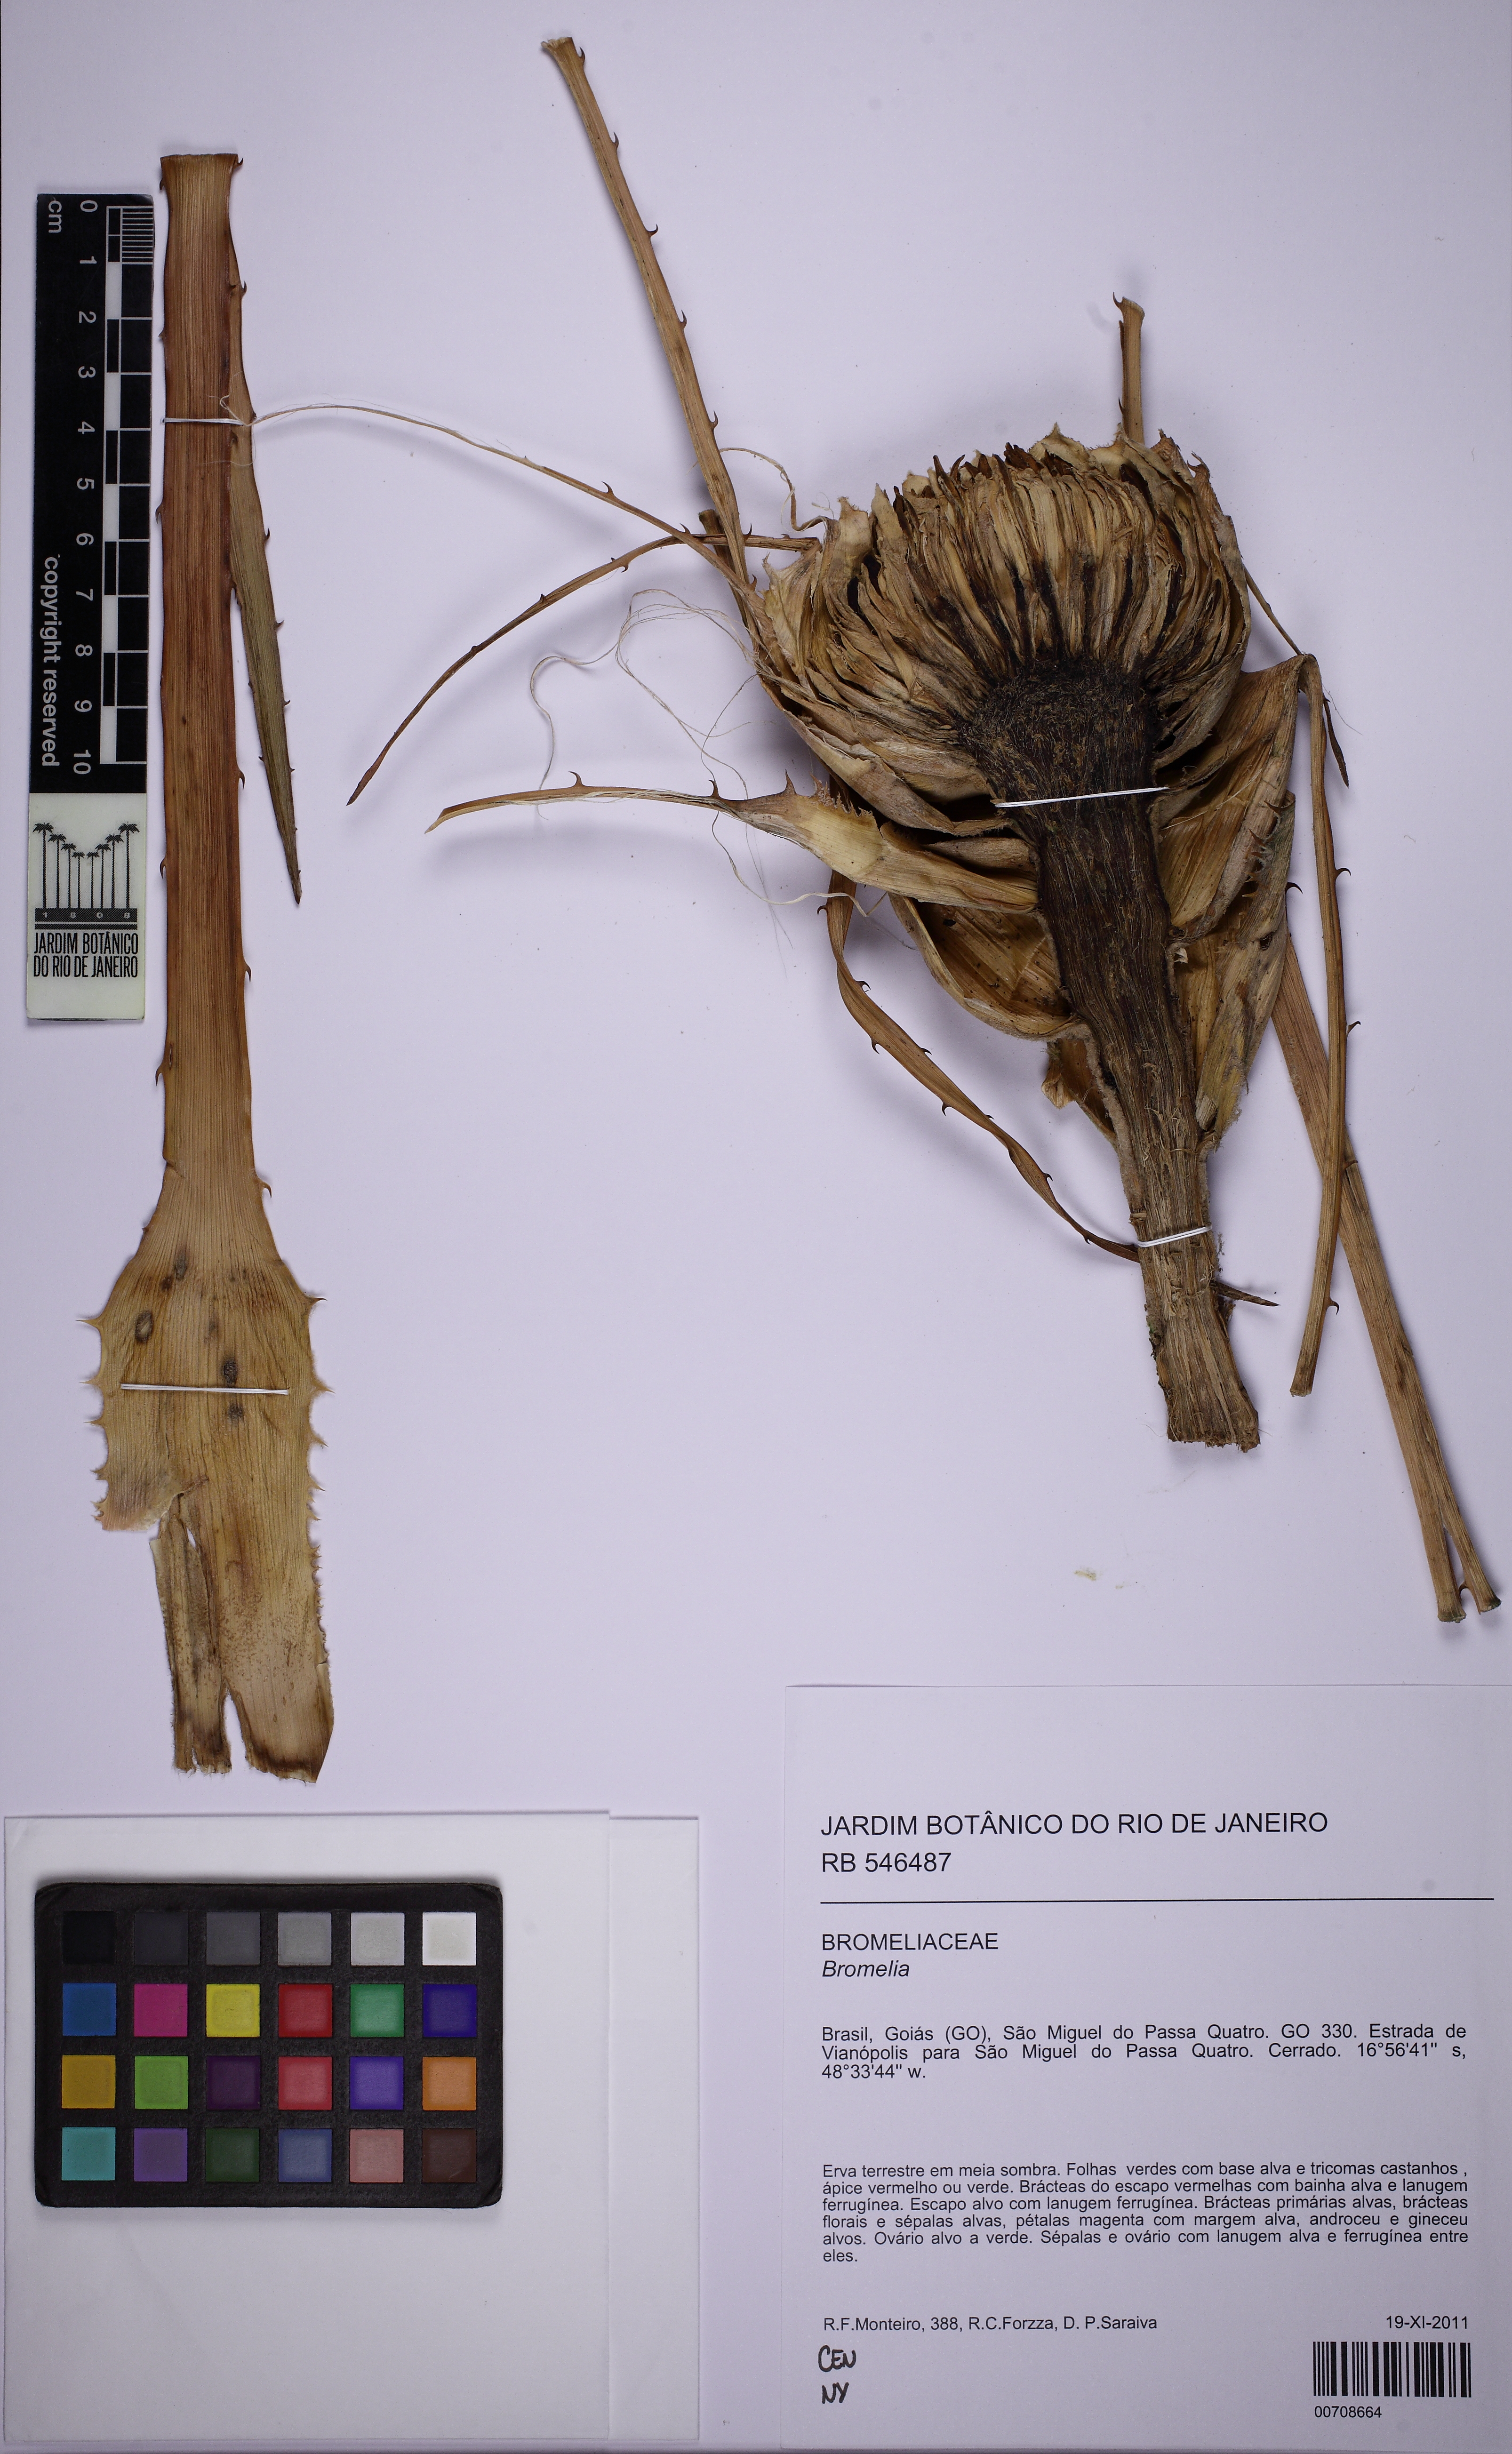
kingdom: Plantae
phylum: Tracheophyta
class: Liliopsida
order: Poales
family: Bromeliaceae
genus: Bromelia
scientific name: Bromelia
